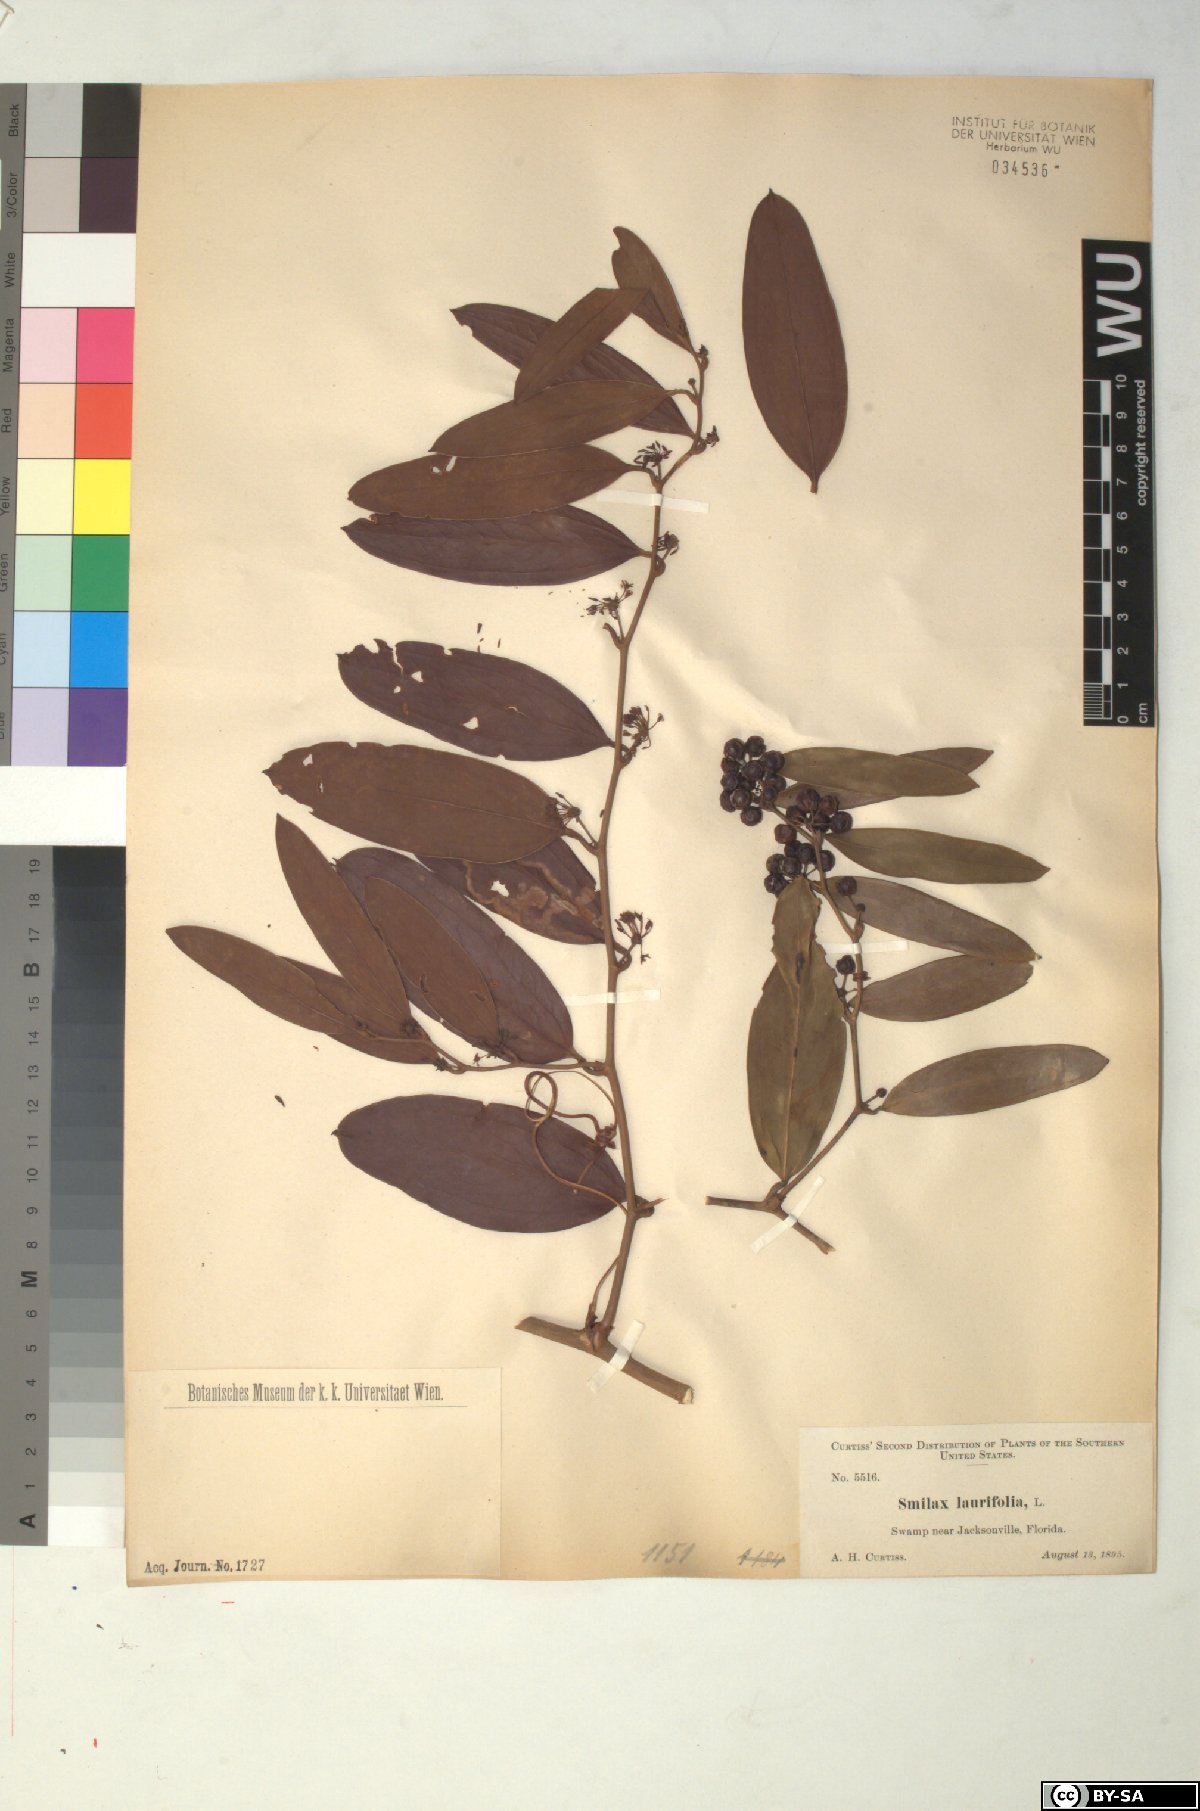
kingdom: Plantae
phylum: Tracheophyta
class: Liliopsida
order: Liliales
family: Smilacaceae
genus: Smilax
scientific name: Smilax laurifolia
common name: Bamboovine
